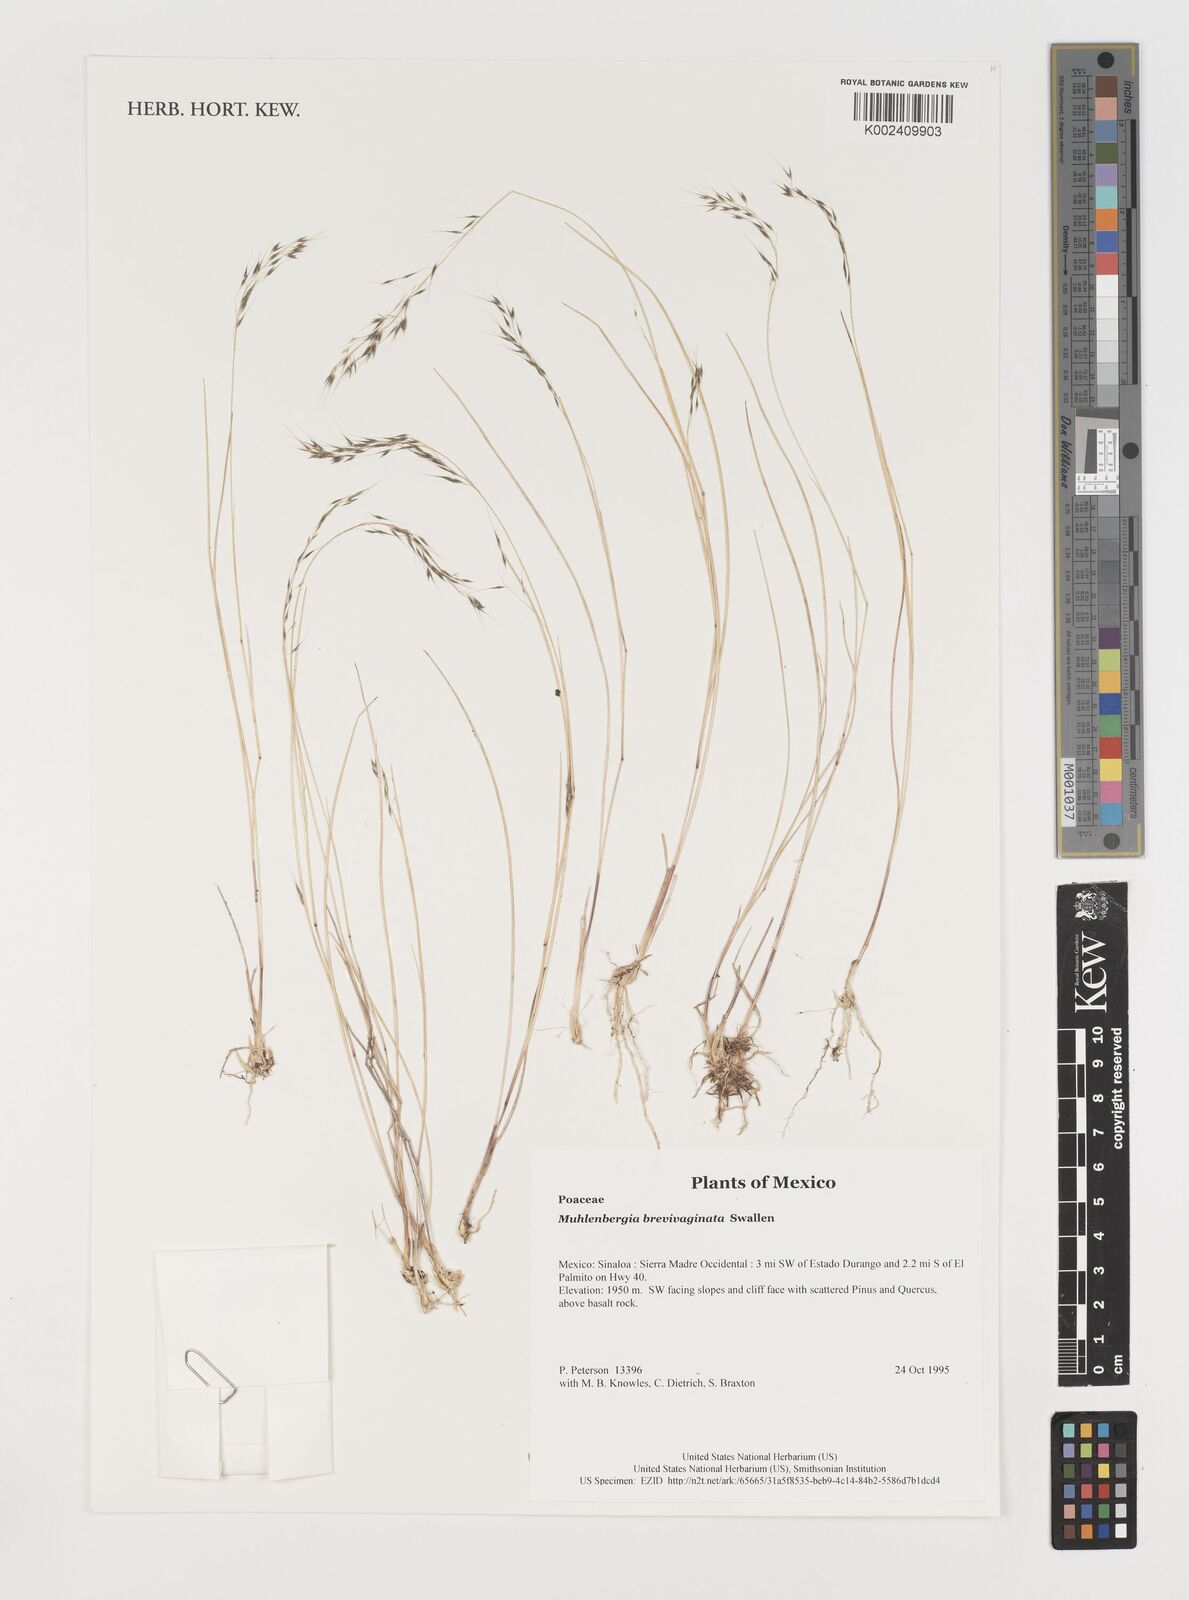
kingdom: Plantae
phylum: Tracheophyta
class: Liliopsida
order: Poales
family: Poaceae
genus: Muhlenbergia
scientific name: Muhlenbergia brevivaginata
